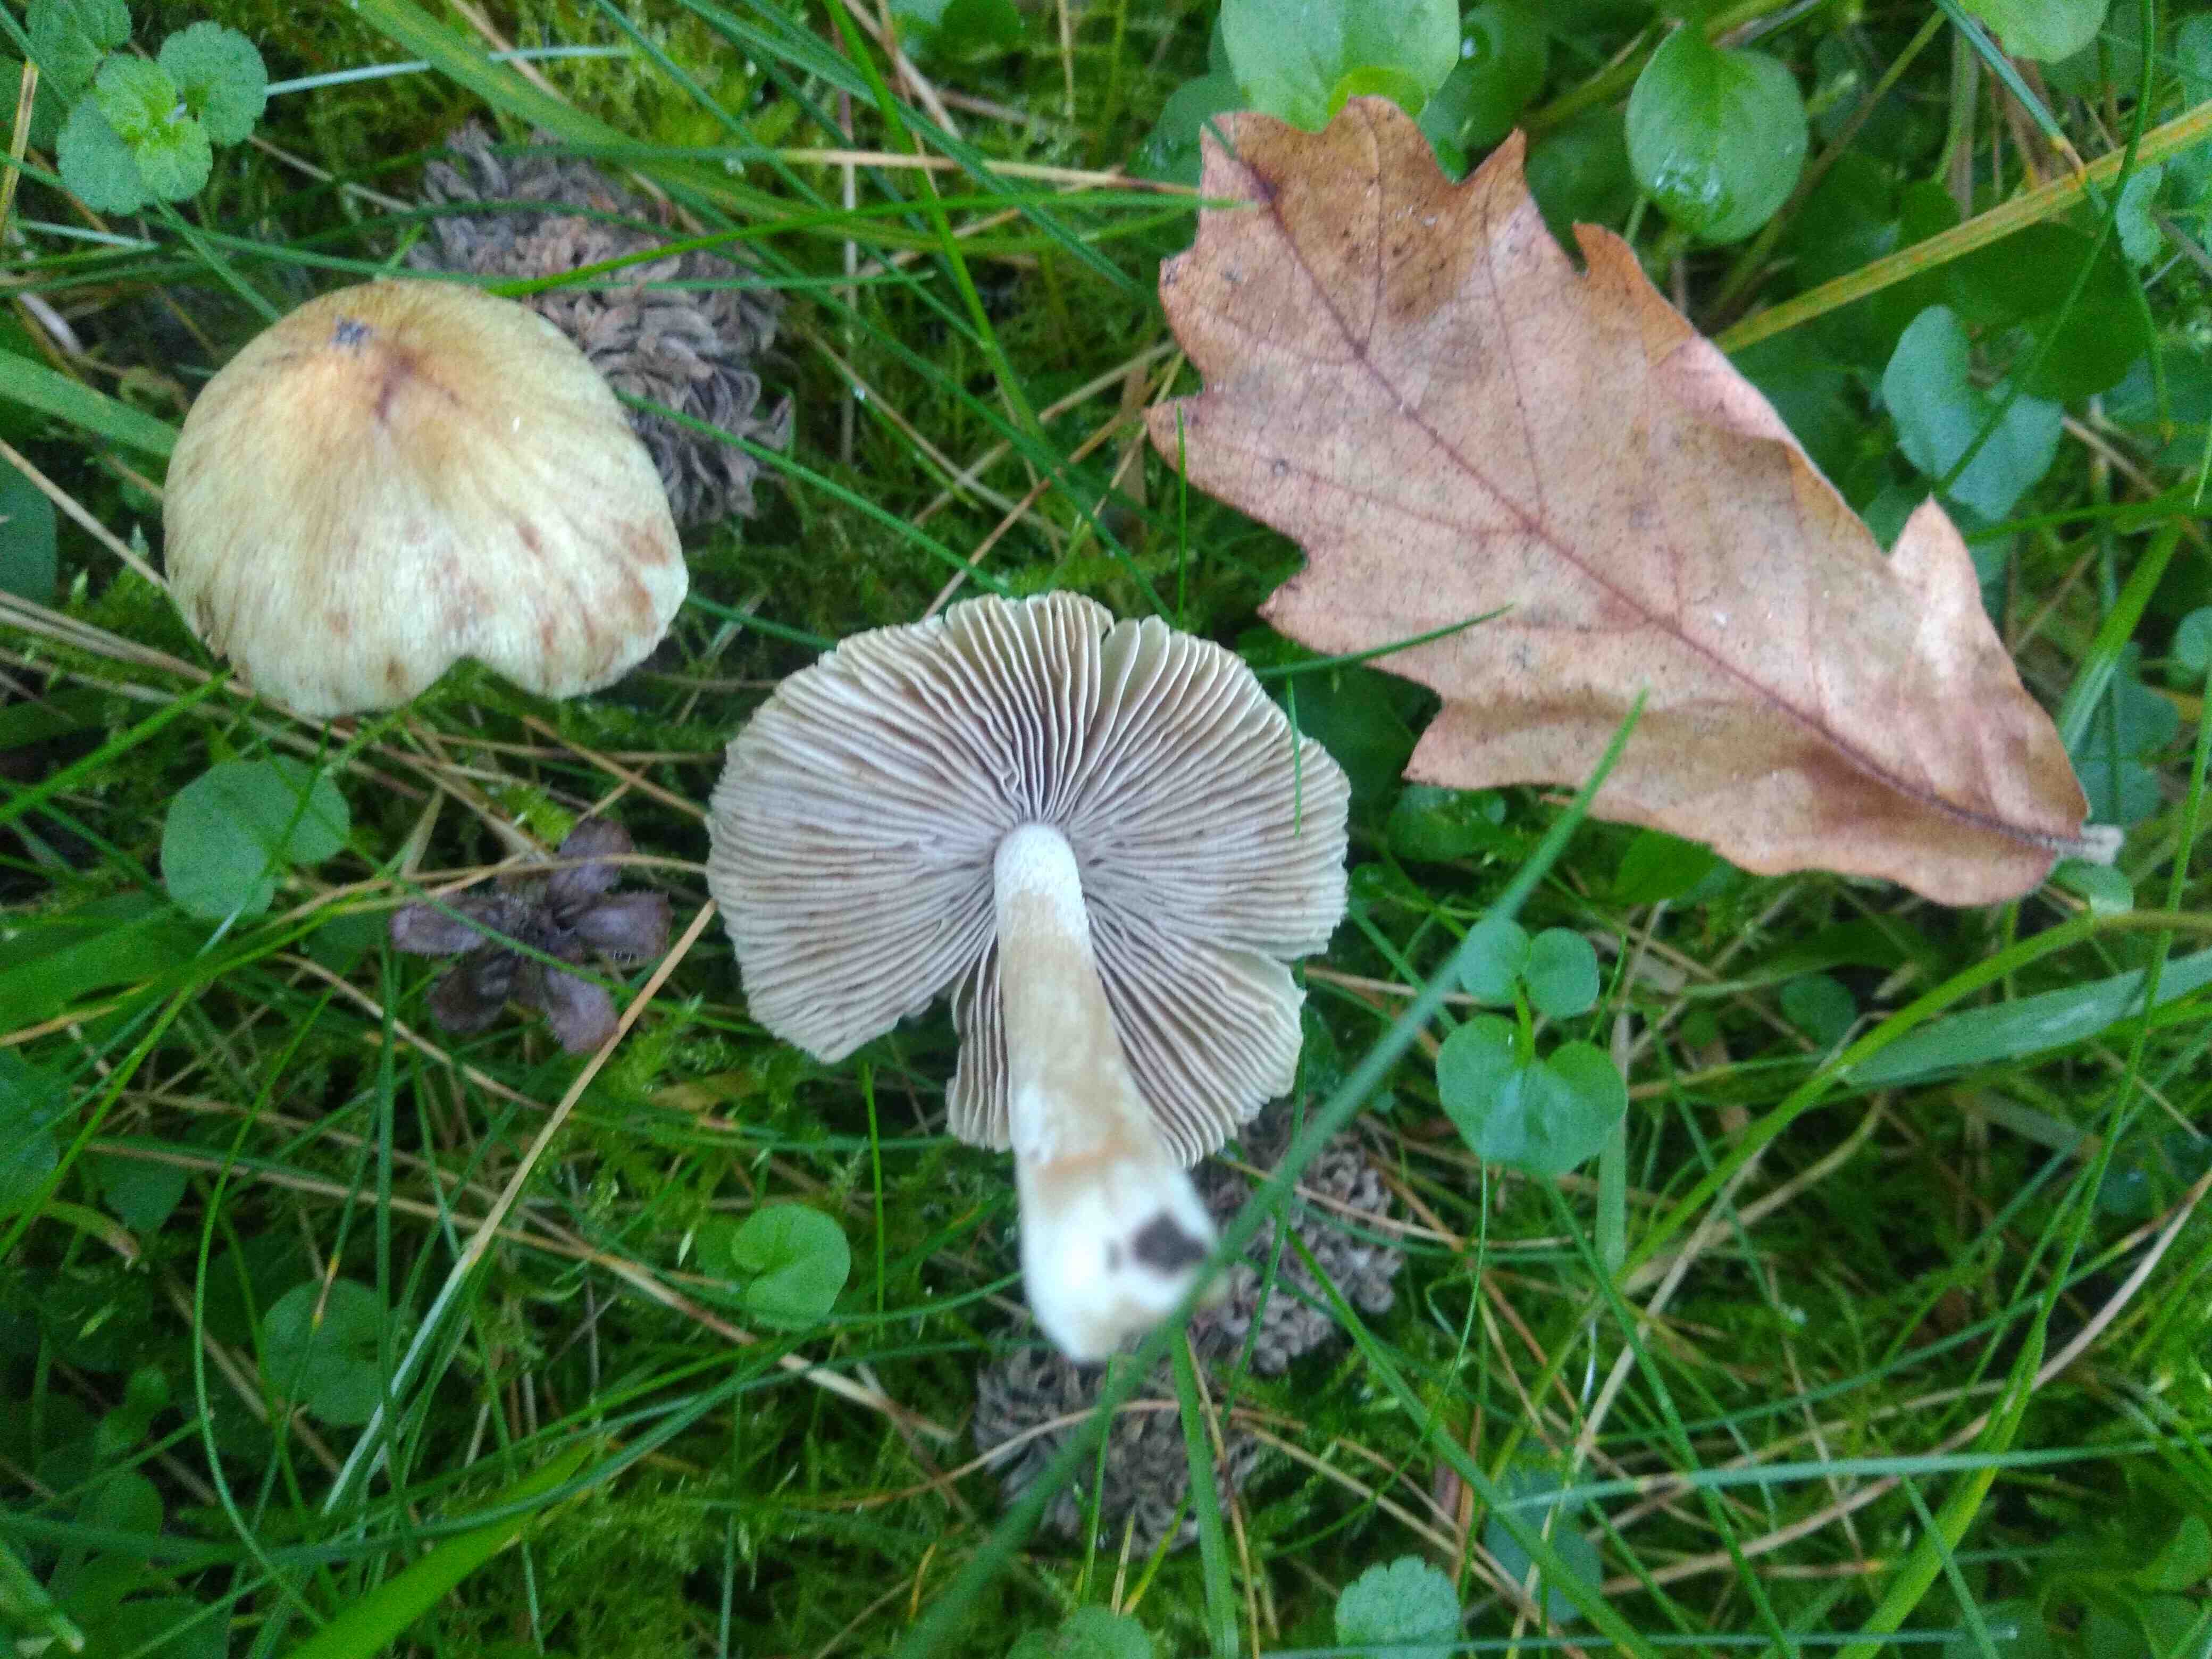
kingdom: Fungi
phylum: Basidiomycota
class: Agaricomycetes
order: Agaricales
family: Inocybaceae
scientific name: Inocybaceae
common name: trævlhatfamilien
